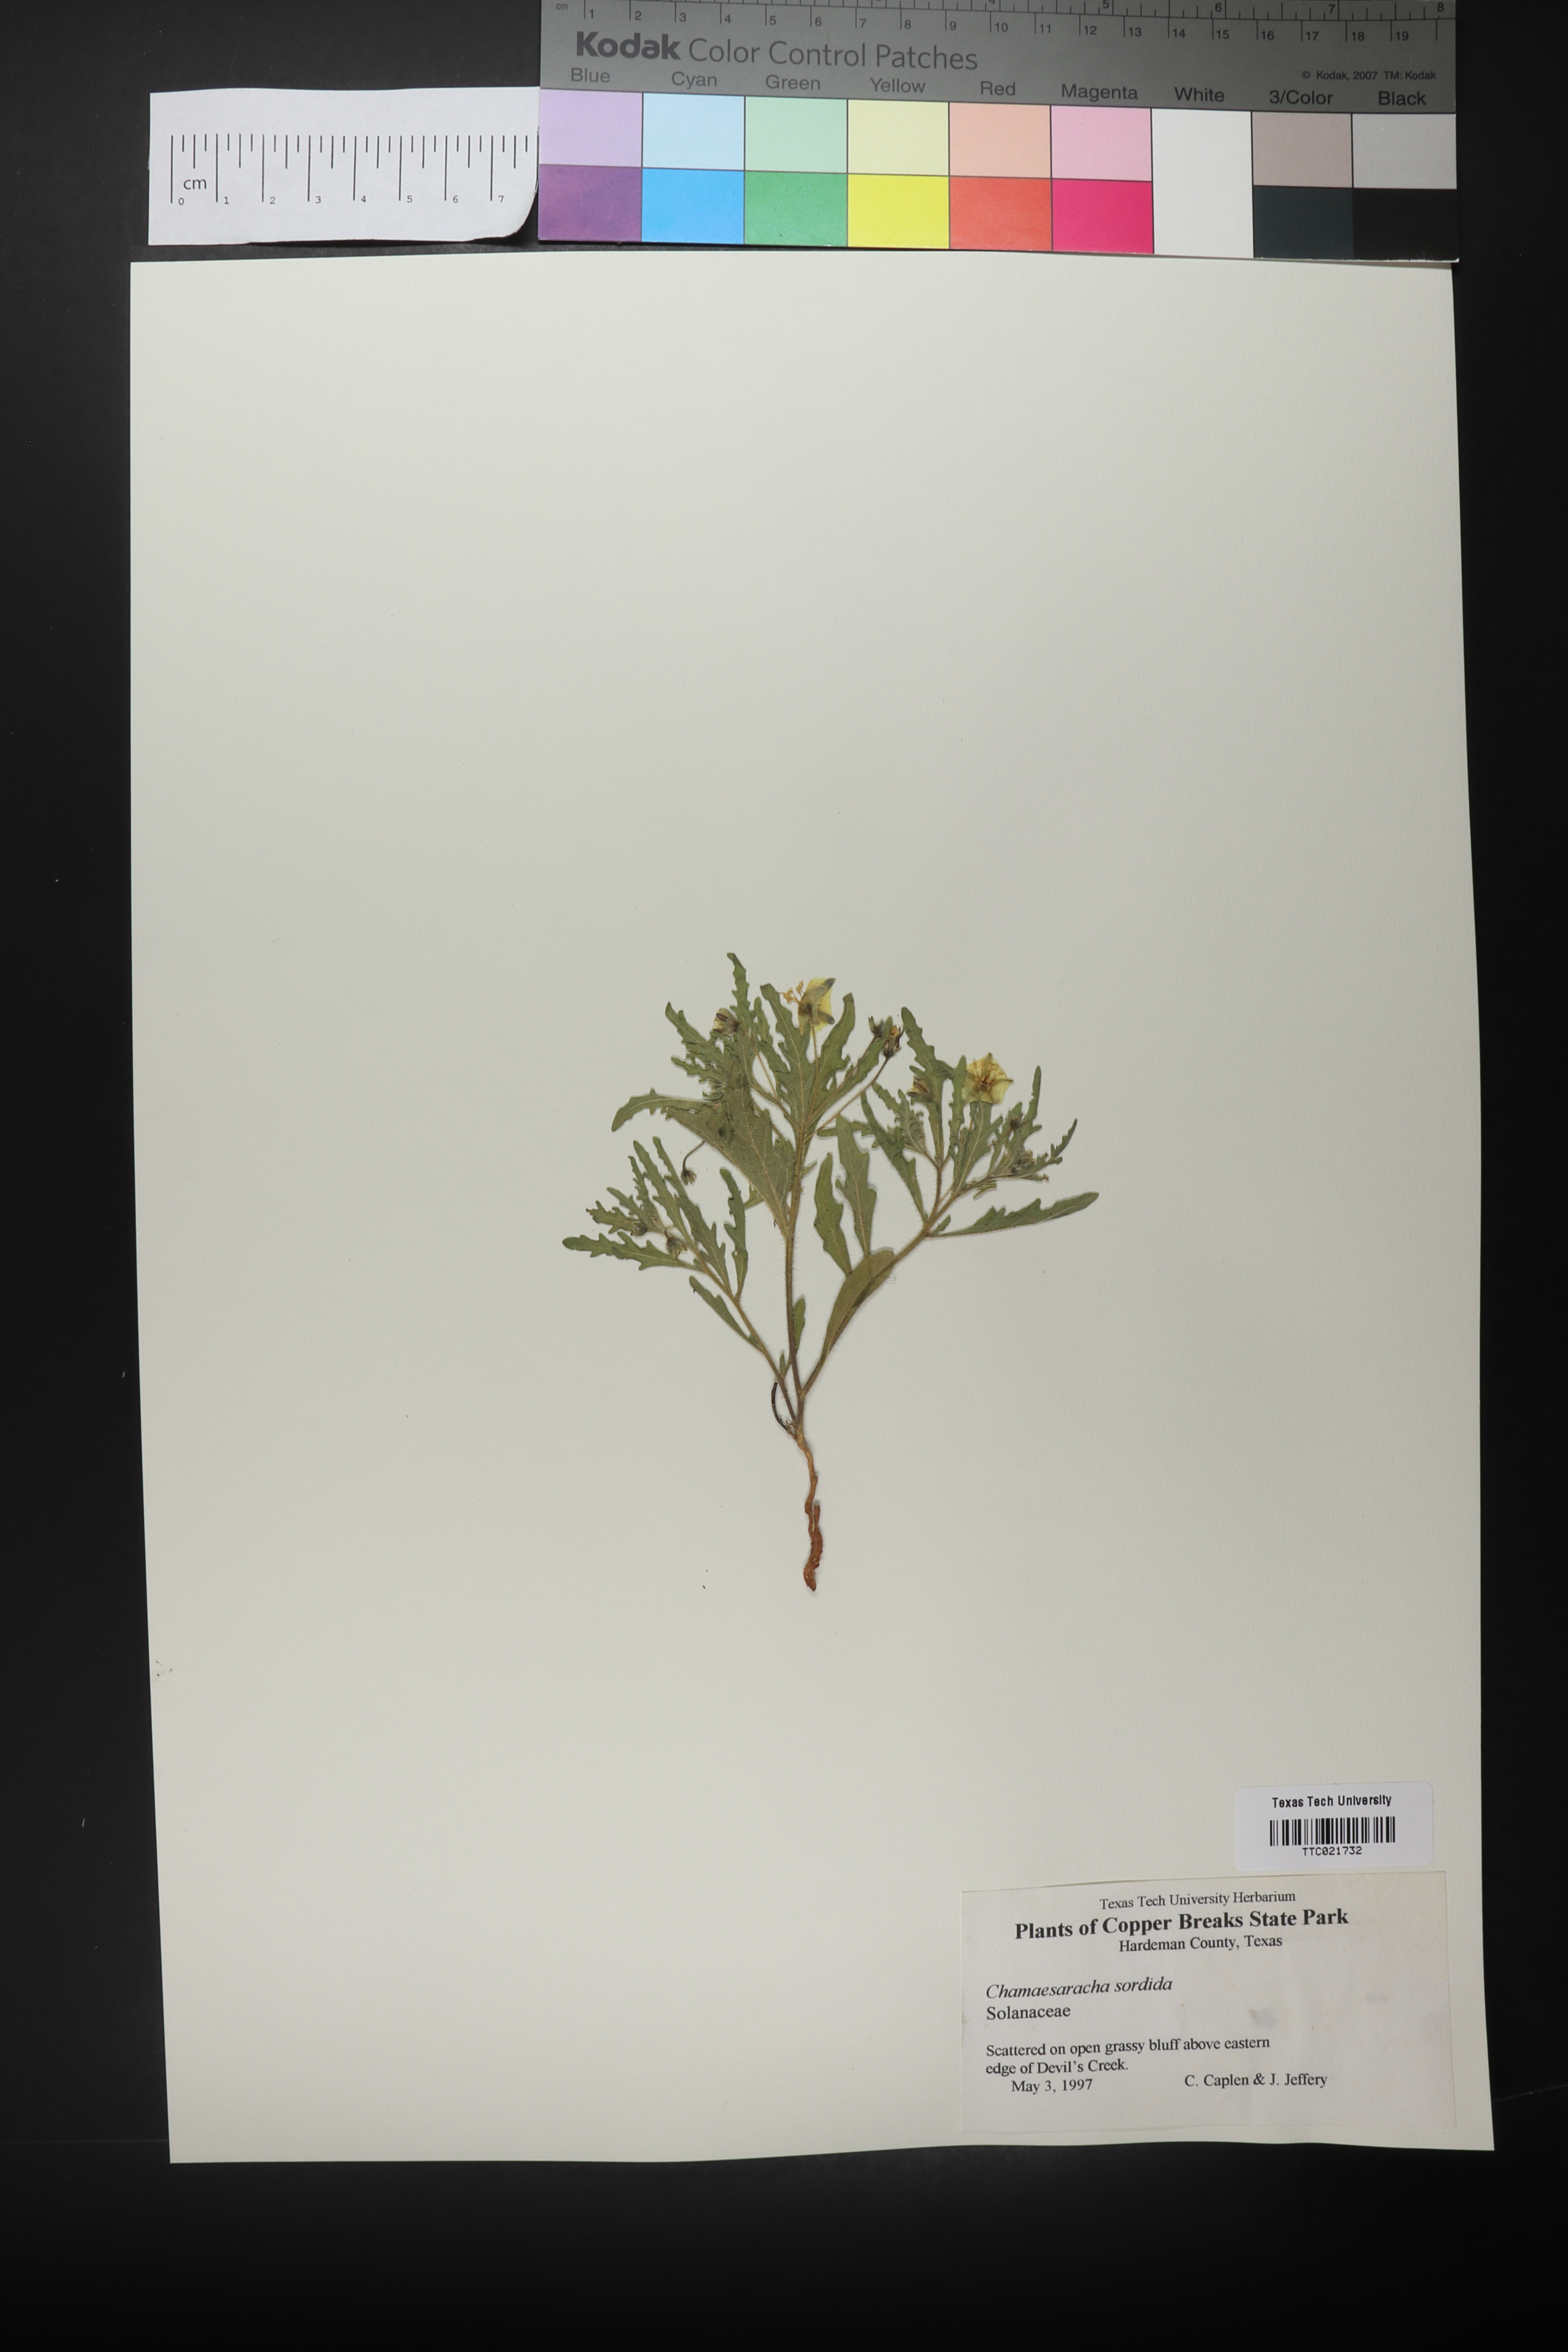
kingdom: Plantae
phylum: Tracheophyta
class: Magnoliopsida
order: Solanales
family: Solanaceae
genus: Chamaesaracha
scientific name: Chamaesaracha sordida
